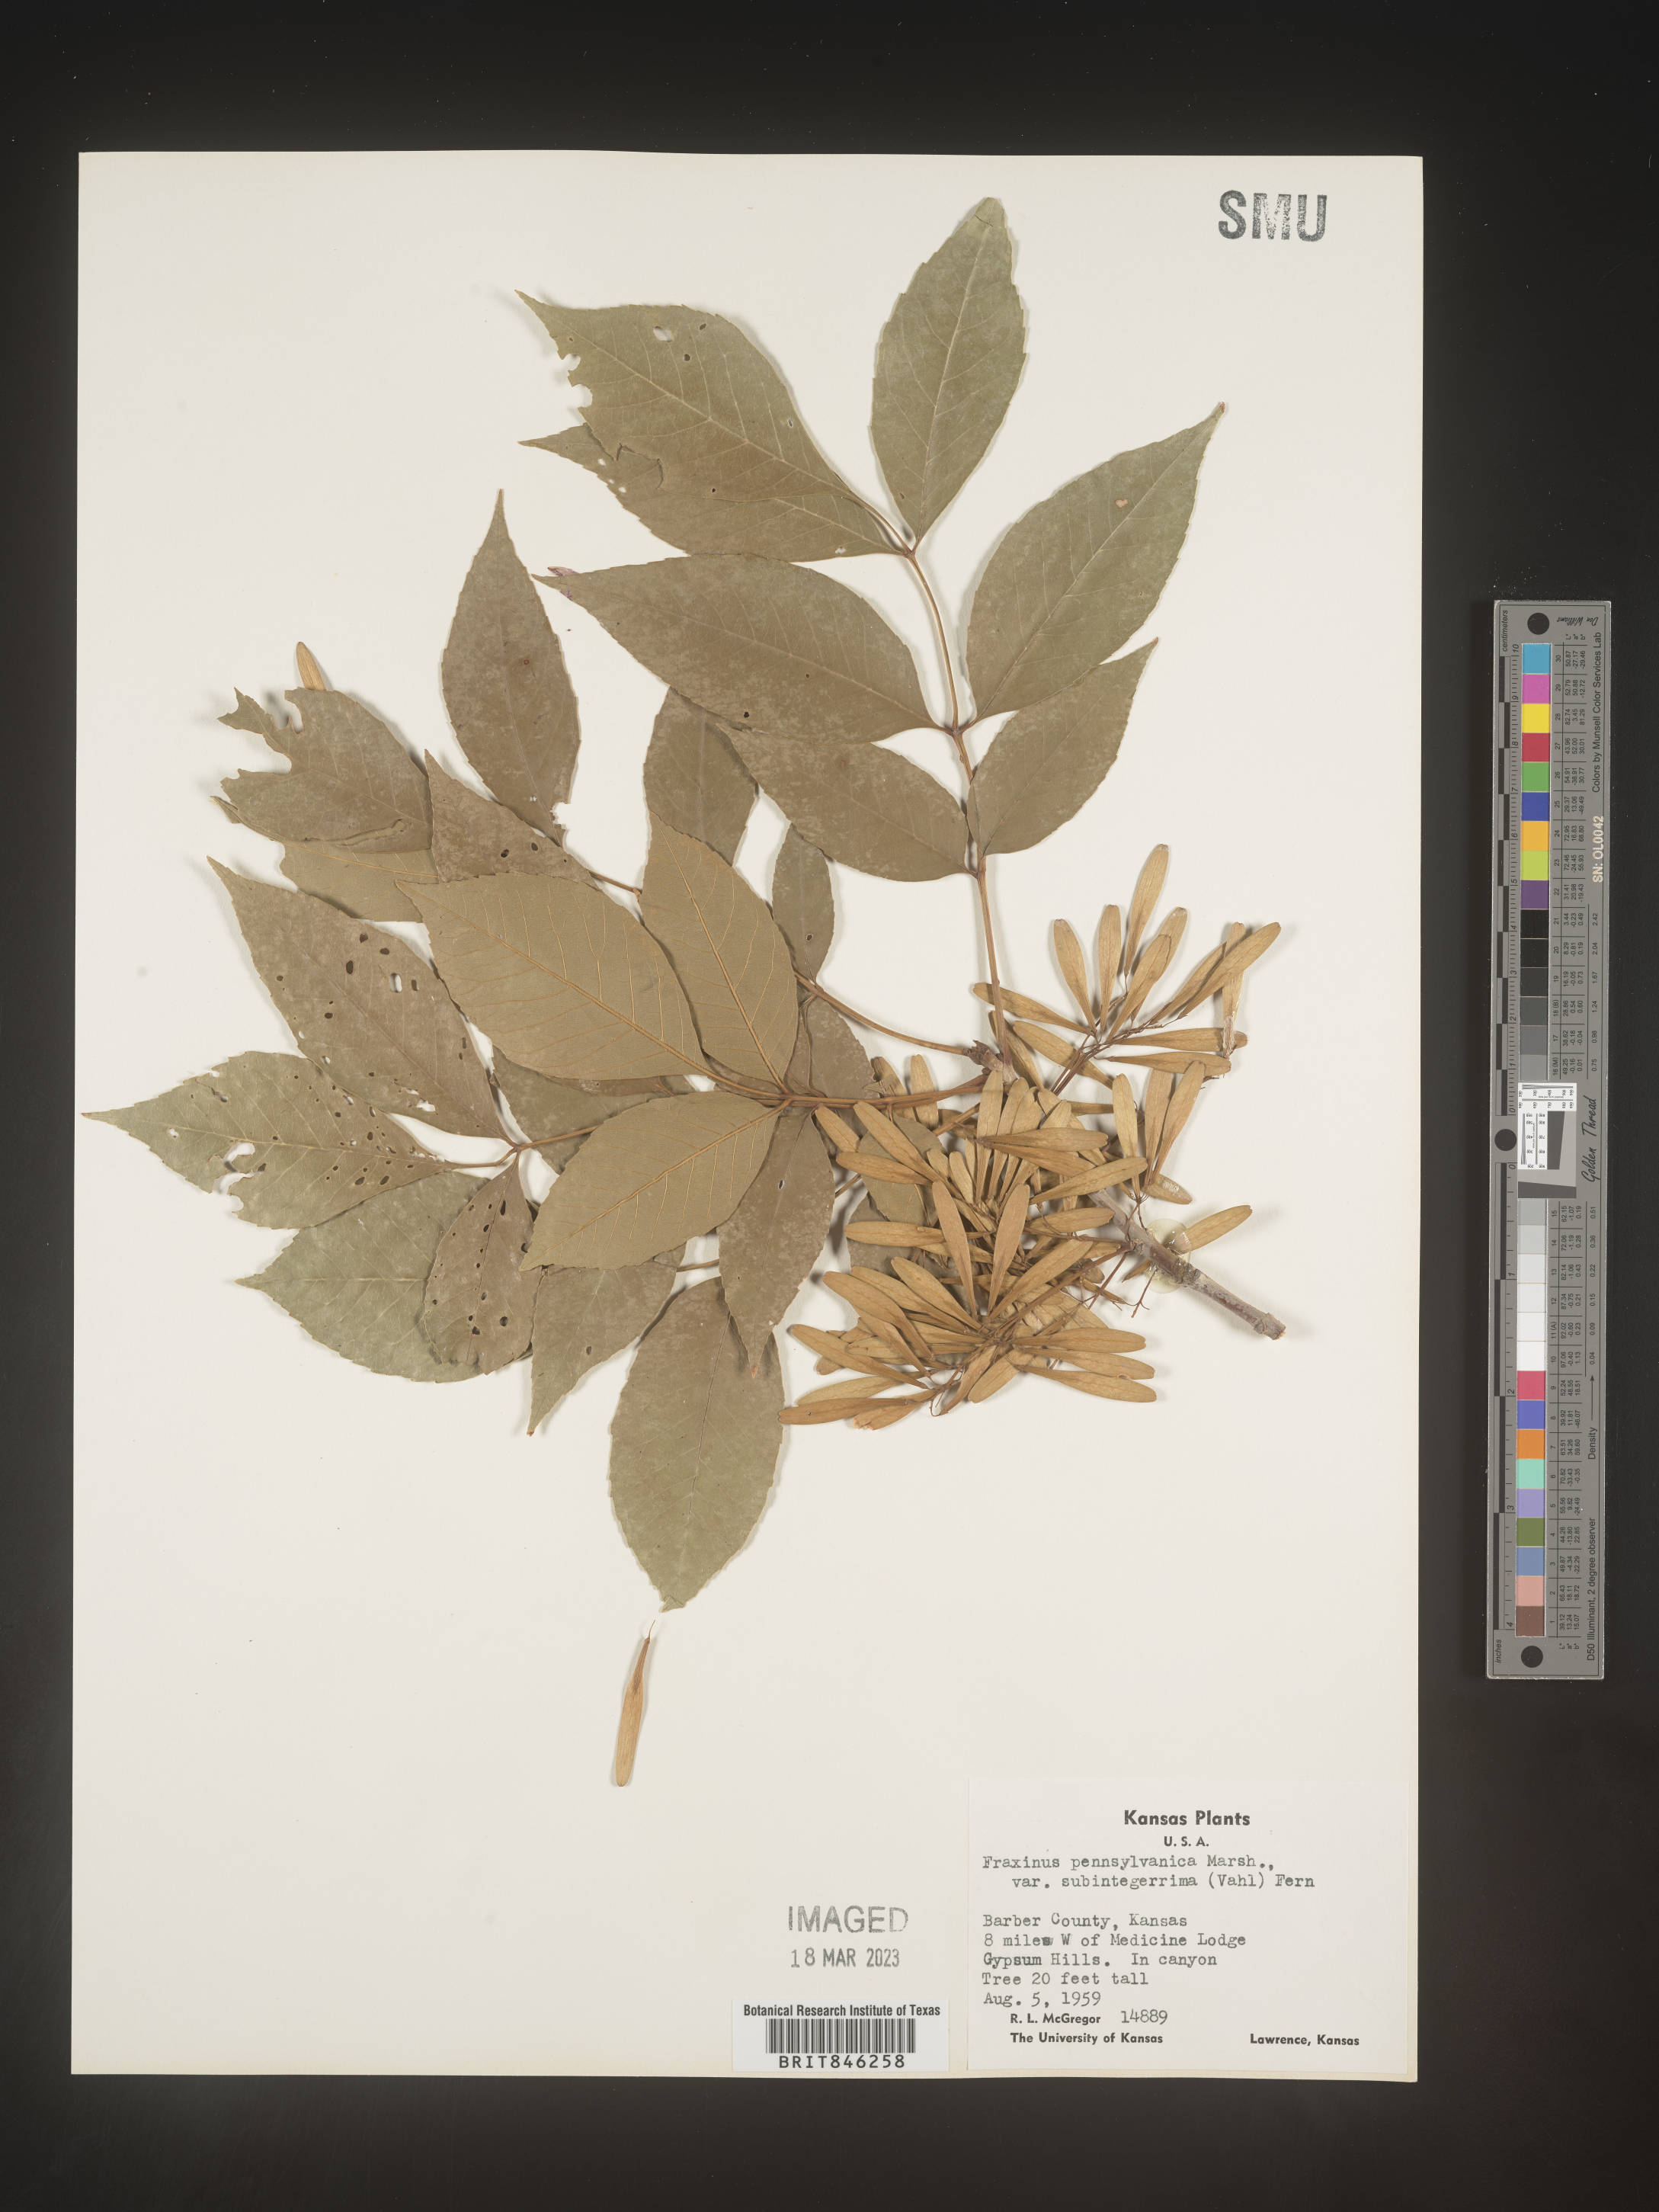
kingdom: Plantae
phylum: Tracheophyta
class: Magnoliopsida
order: Lamiales
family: Oleaceae
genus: Fraxinus
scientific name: Fraxinus pennsylvanica
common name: Green ash
